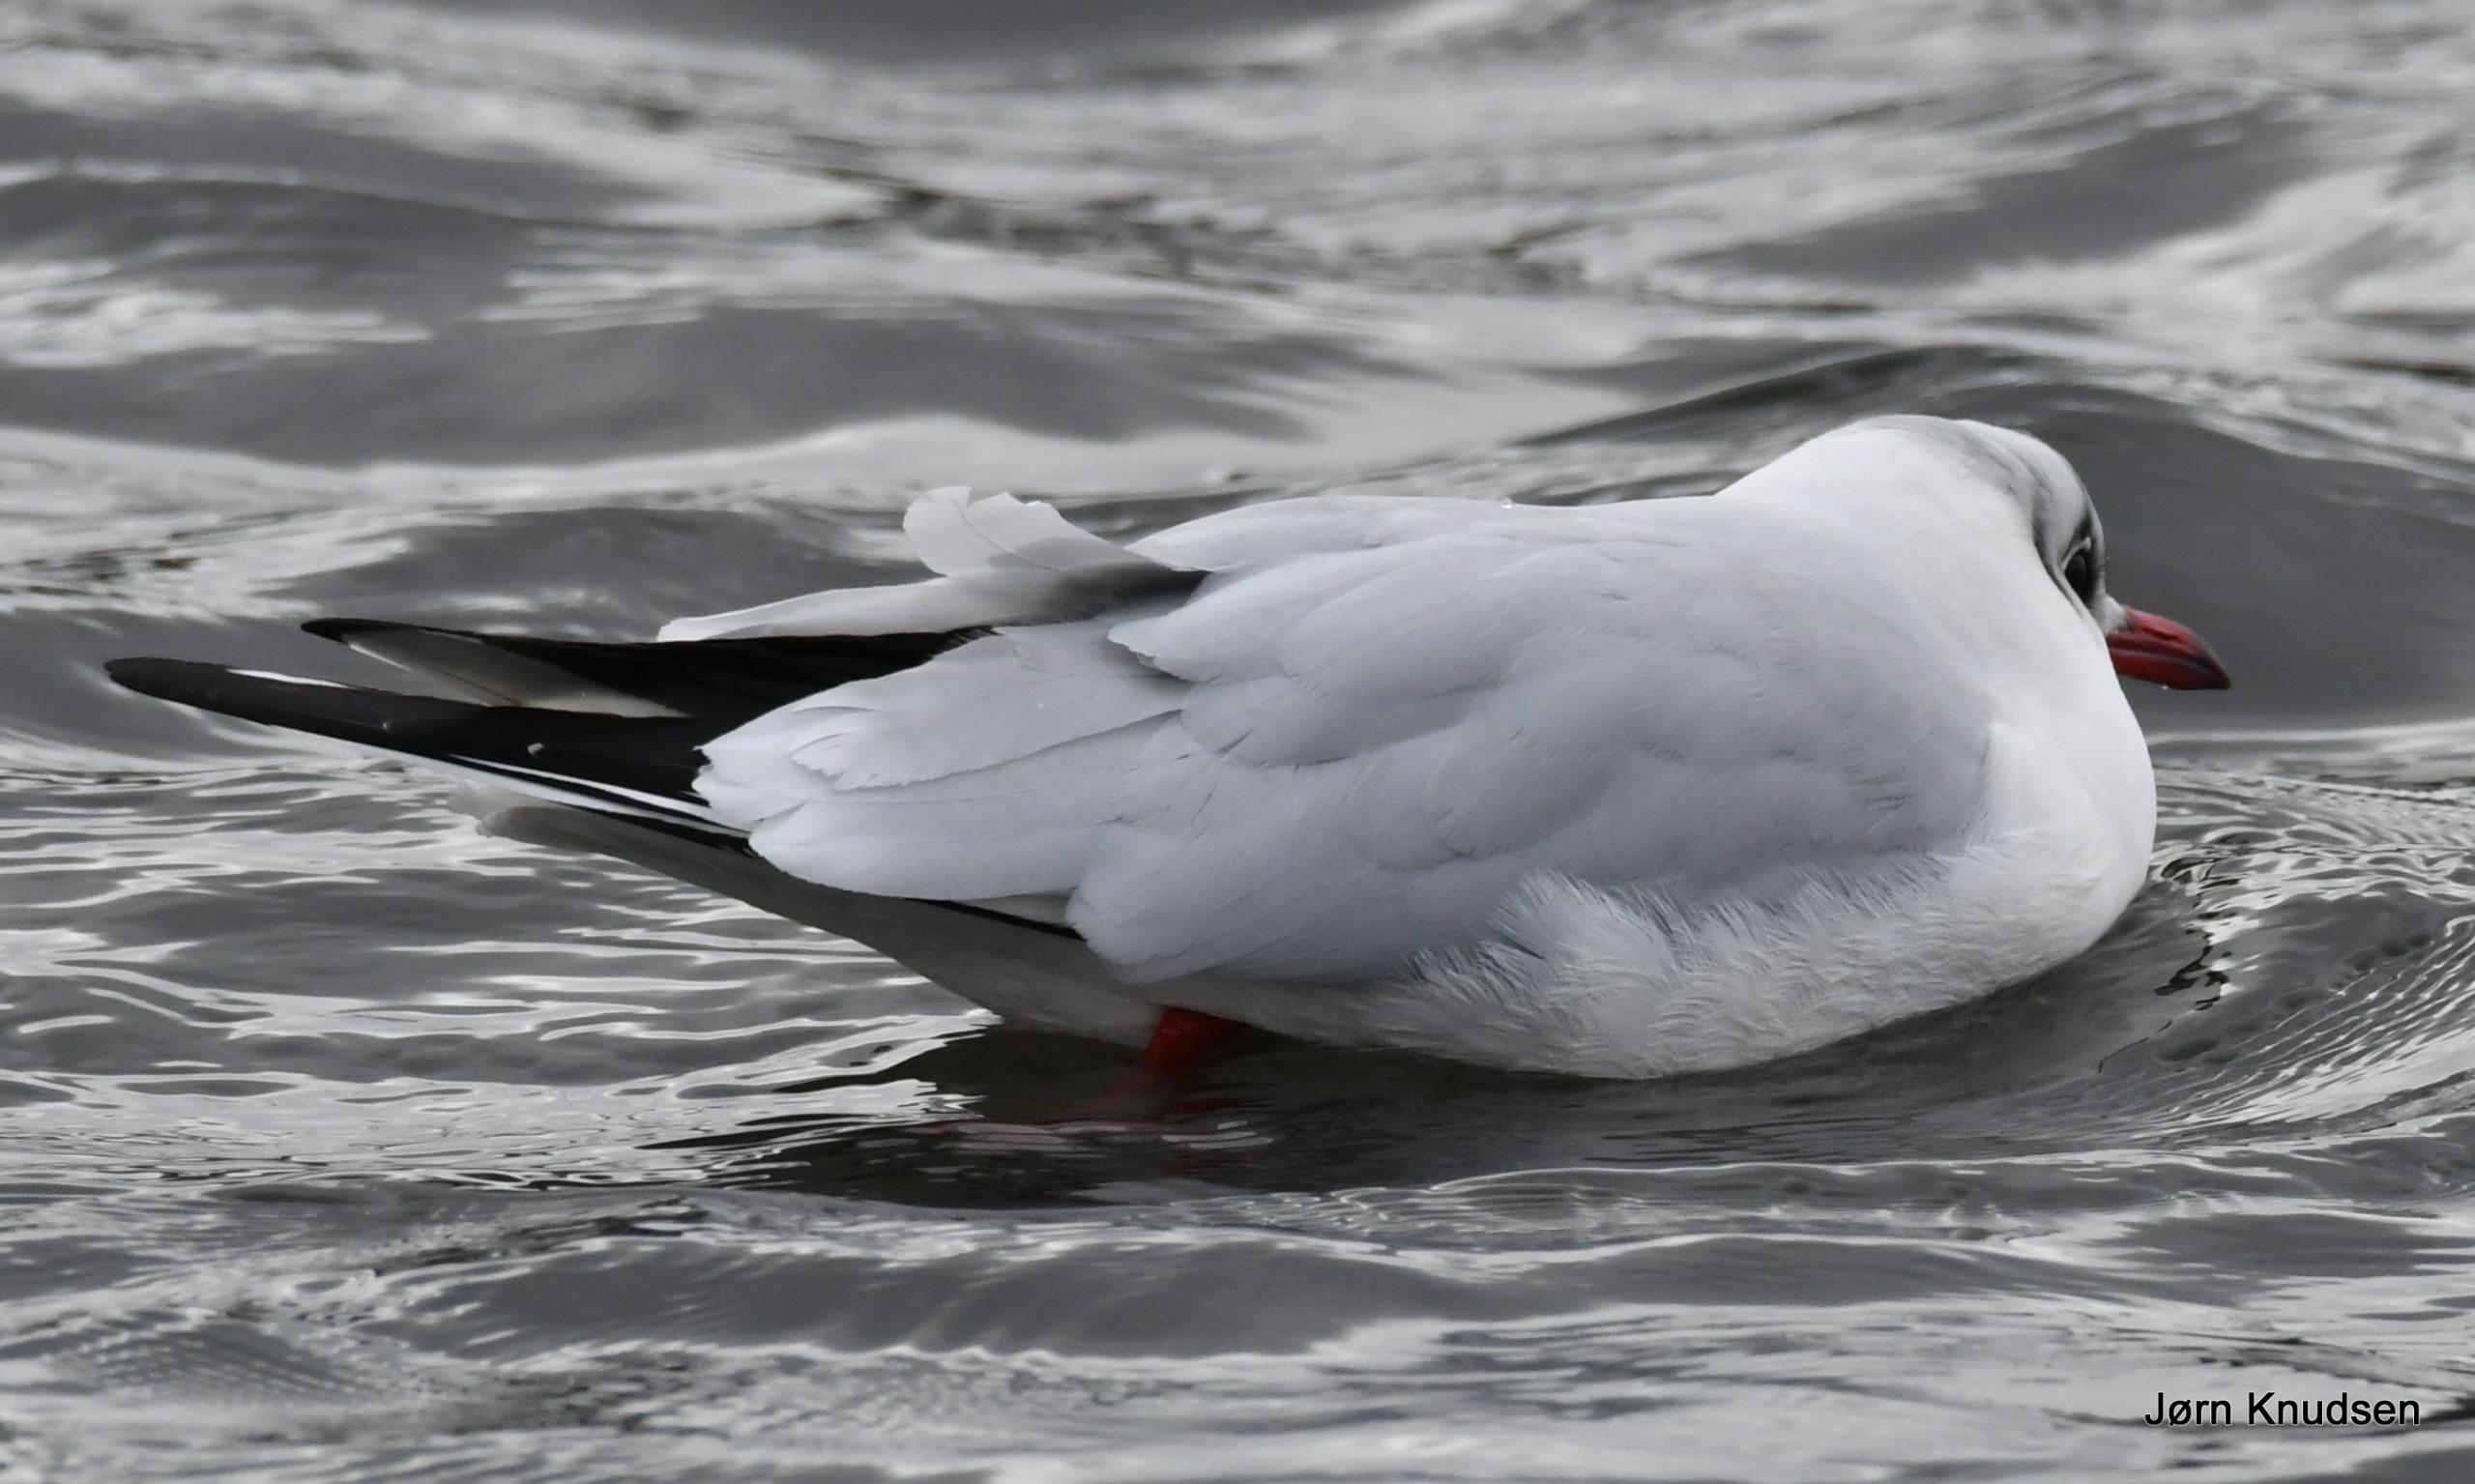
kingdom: Animalia
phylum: Chordata
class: Aves
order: Charadriiformes
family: Laridae
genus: Chroicocephalus
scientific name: Chroicocephalus ridibundus
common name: Hættemåge
